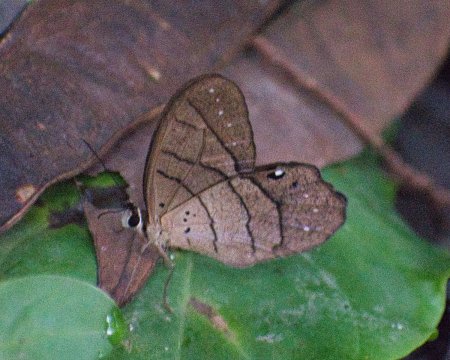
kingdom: Animalia
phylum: Arthropoda
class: Insecta
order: Lepidoptera
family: Nymphalidae
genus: Pierella
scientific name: Pierella luna
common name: Moon Satyr
